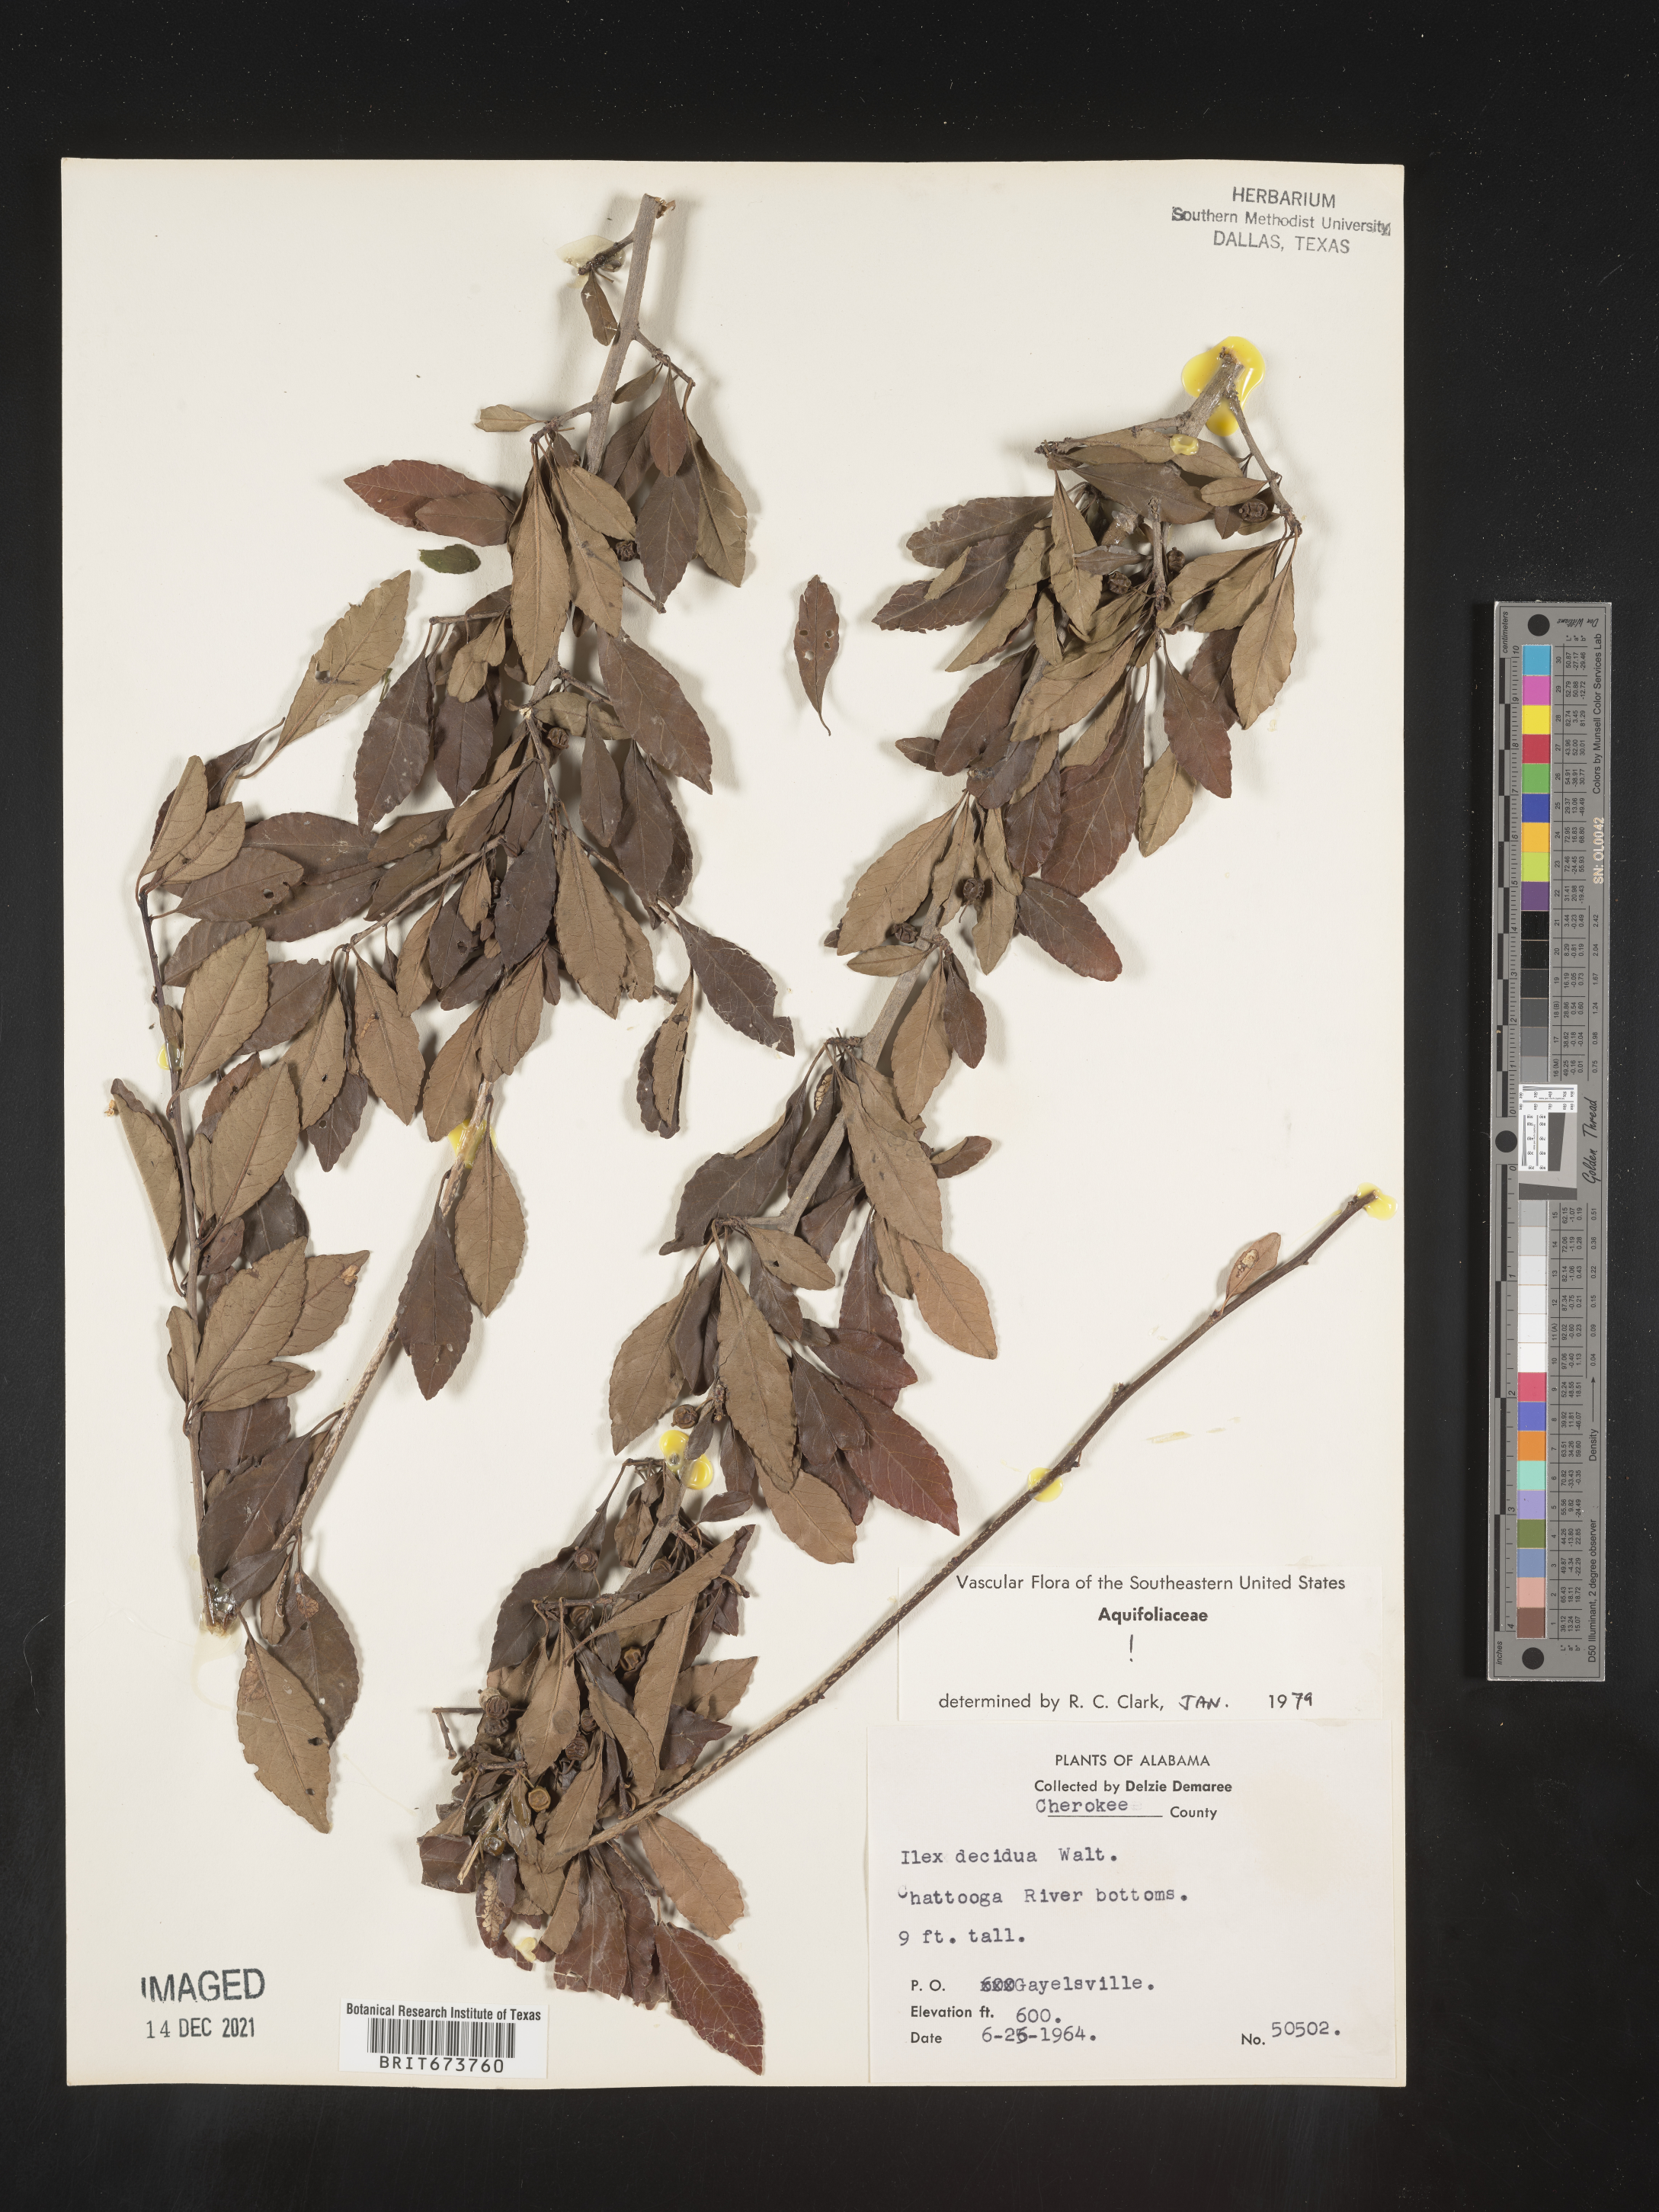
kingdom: Plantae
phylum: Tracheophyta
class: Magnoliopsida
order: Aquifoliales
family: Aquifoliaceae
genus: Ilex
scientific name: Ilex decidua
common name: Possum-haw
